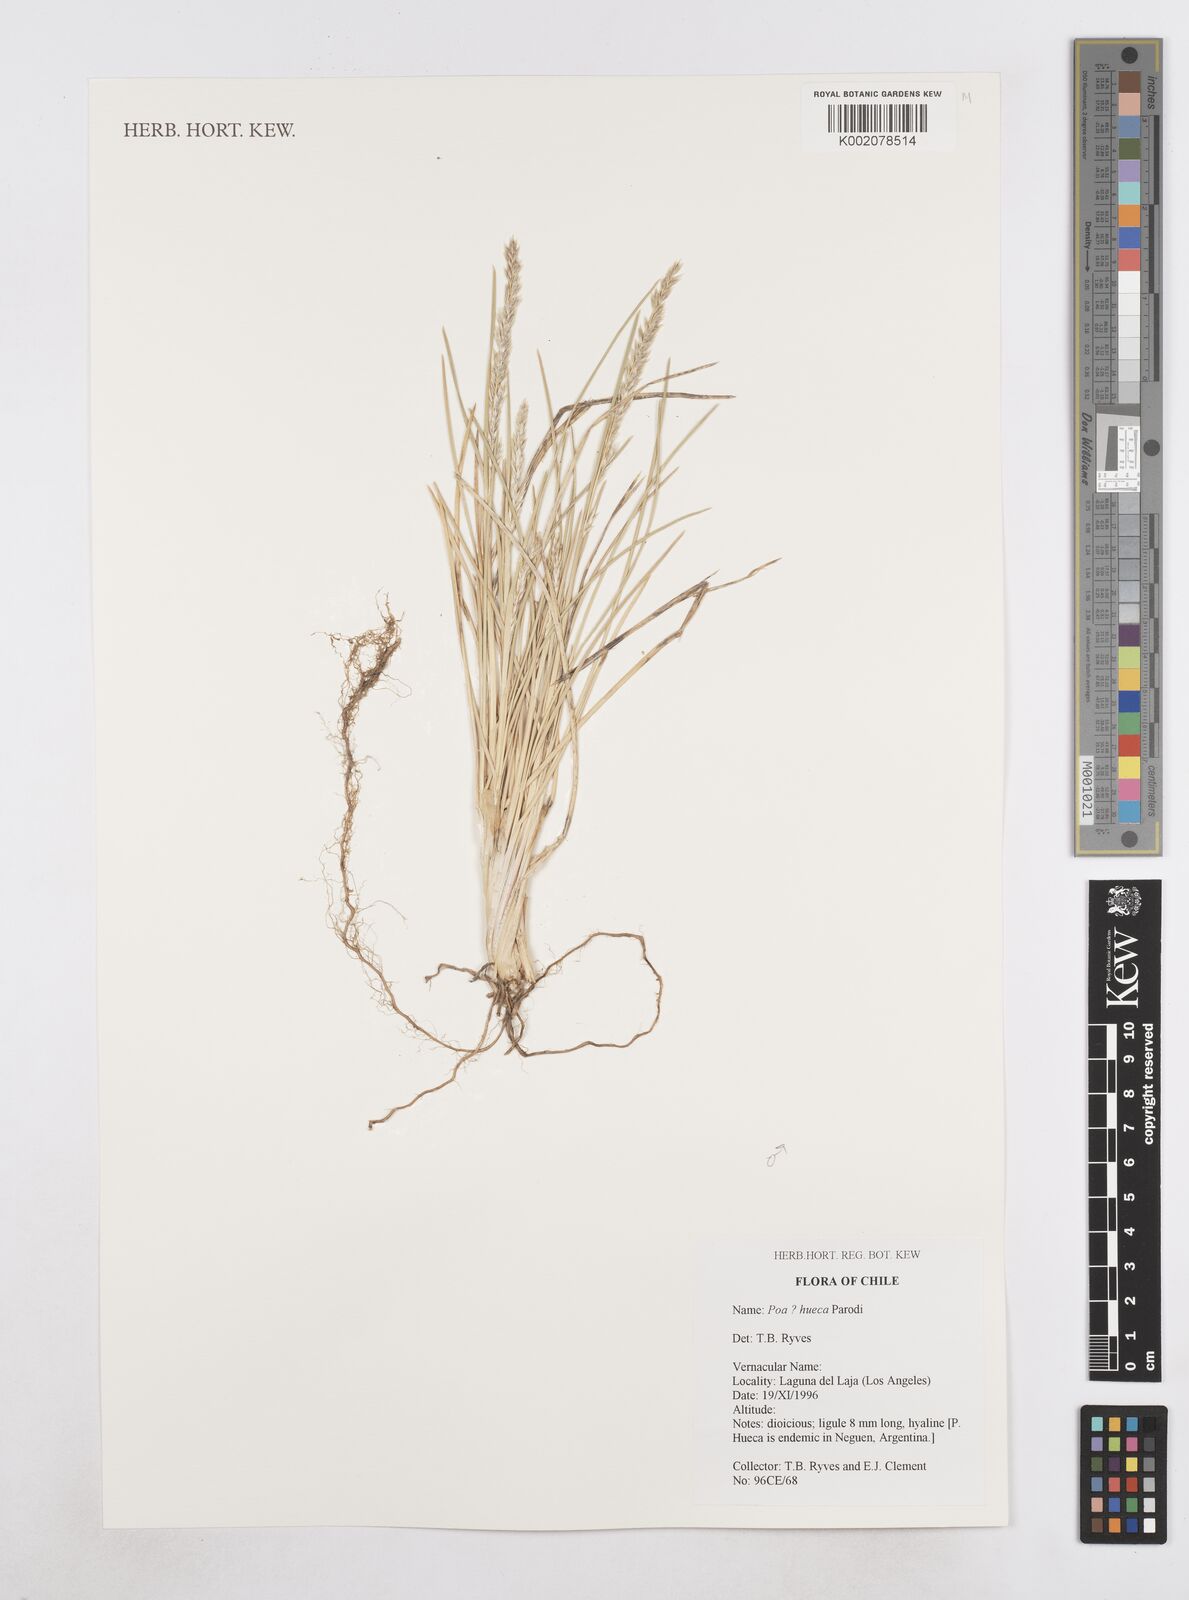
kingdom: Plantae
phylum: Tracheophyta
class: Liliopsida
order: Poales
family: Poaceae
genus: Poa
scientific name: Poa huecu
